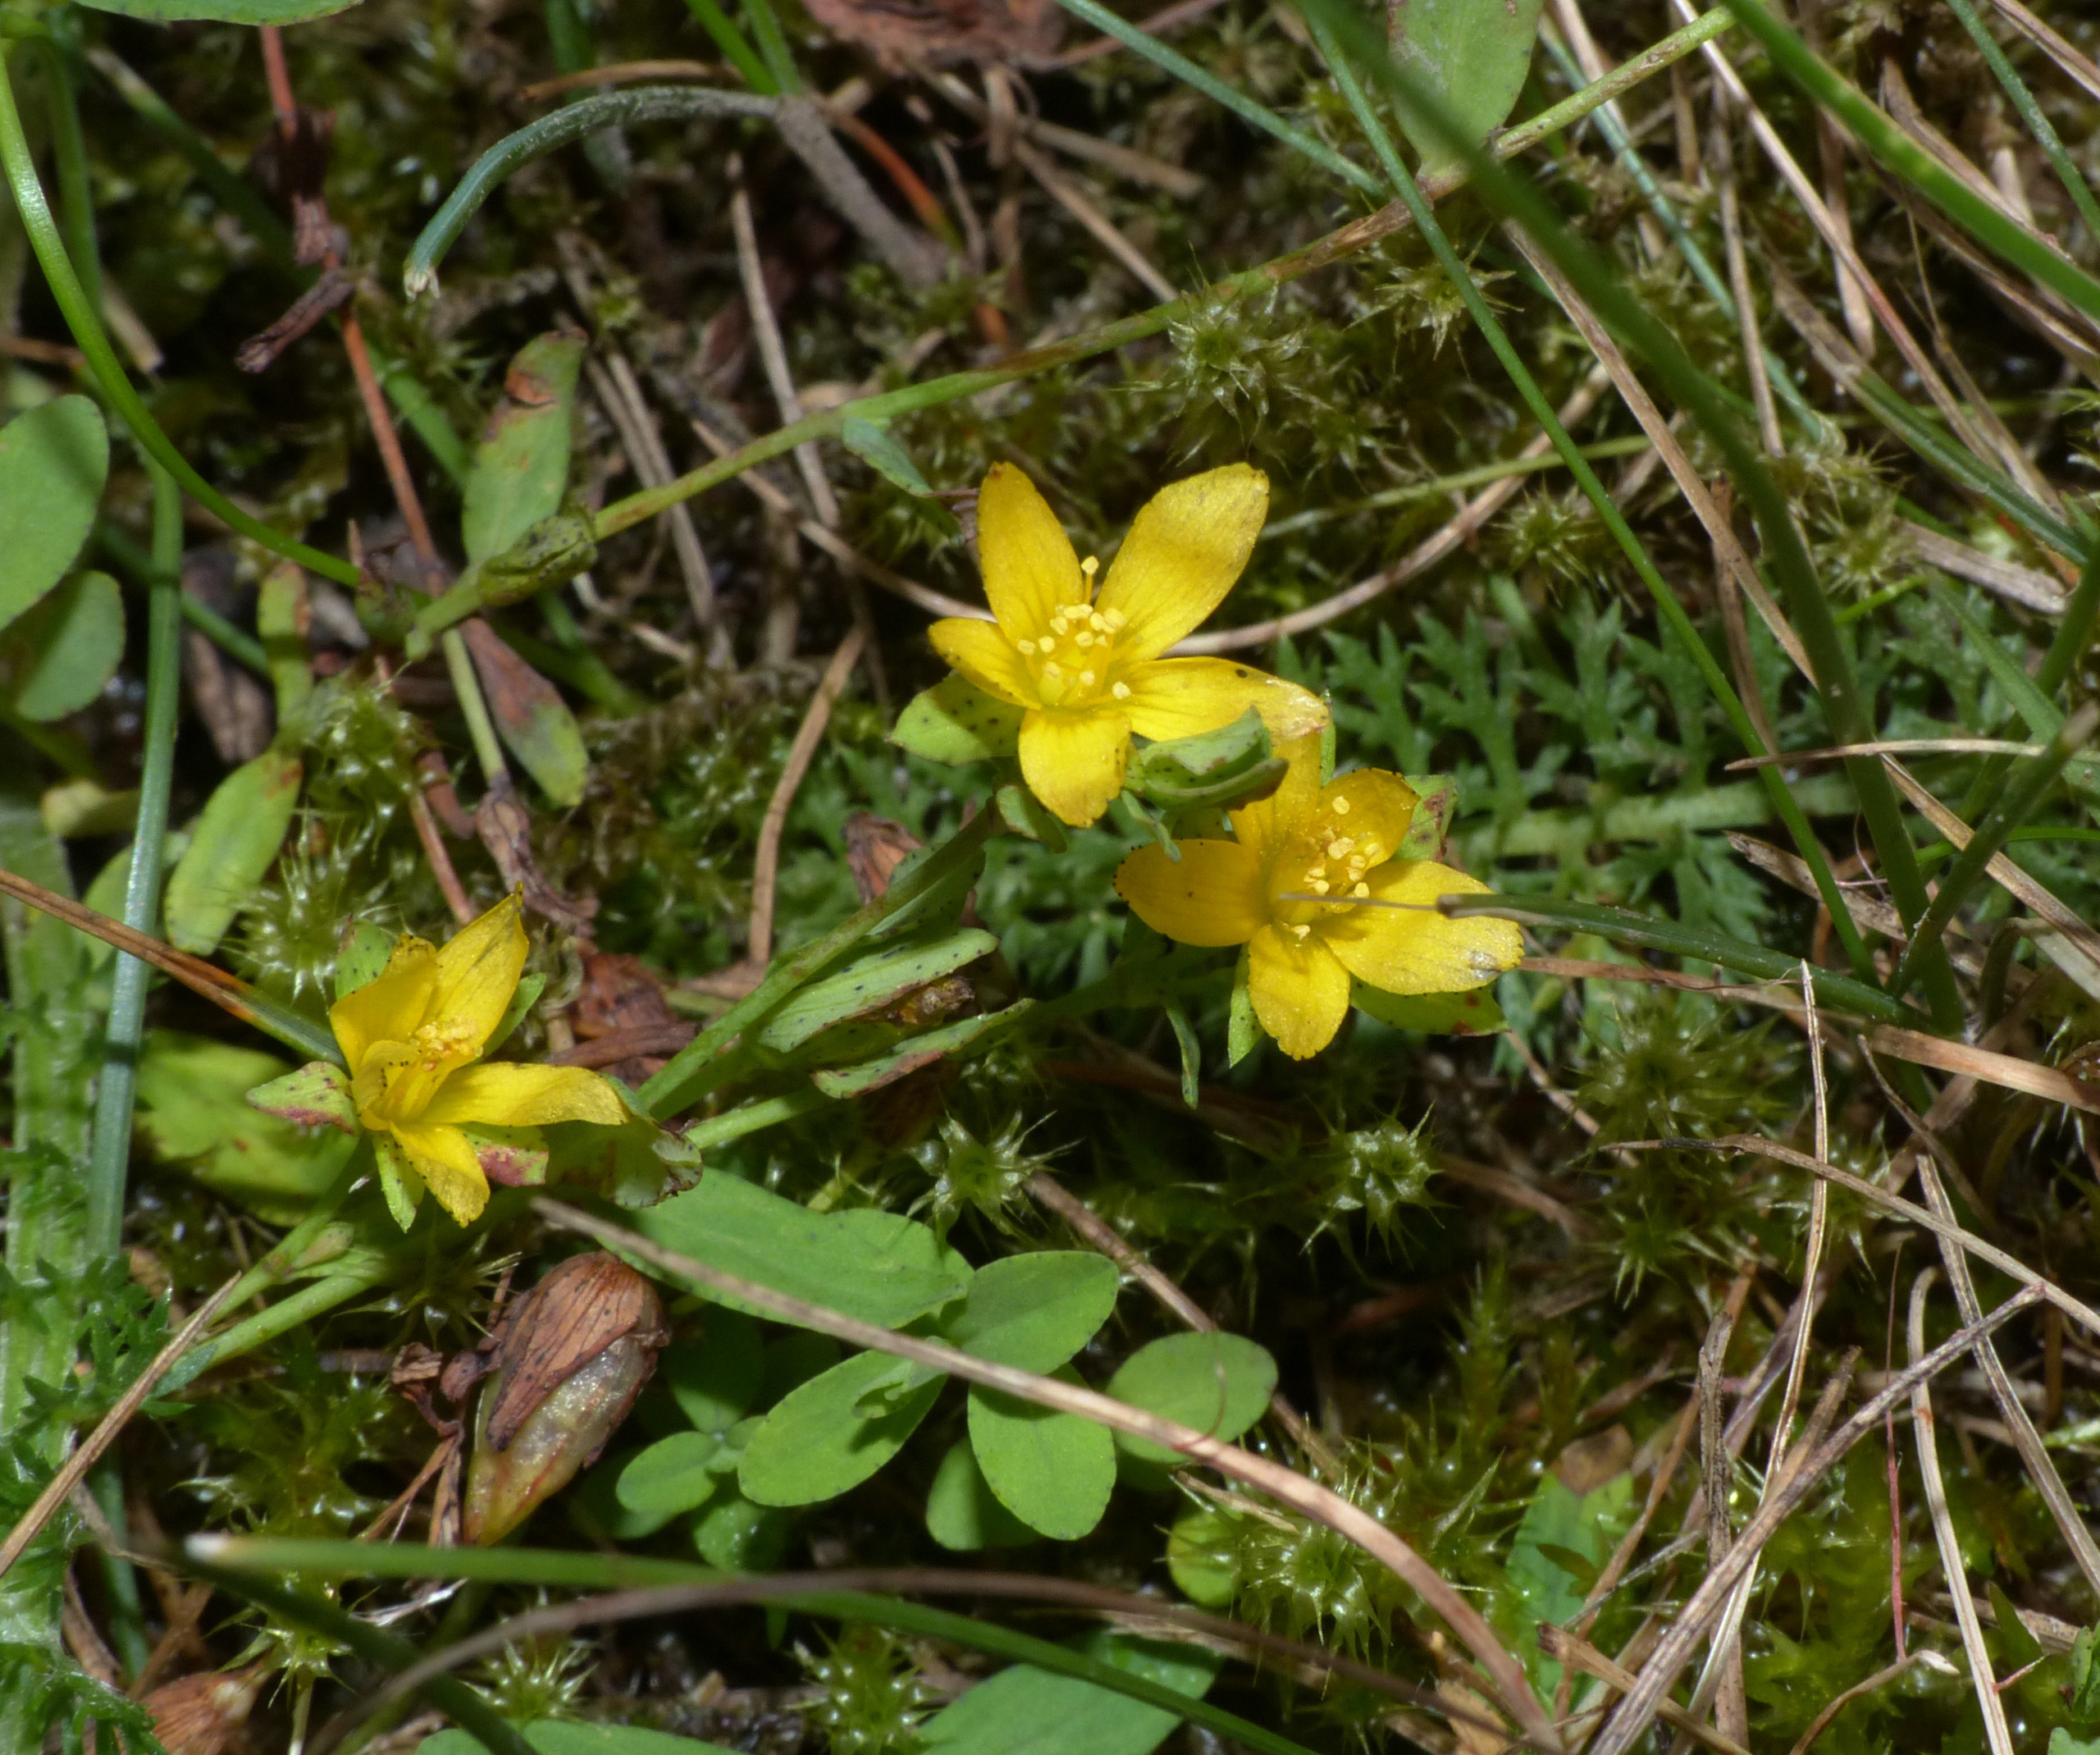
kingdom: Plantae
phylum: Tracheophyta
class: Magnoliopsida
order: Malpighiales
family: Hypericaceae
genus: Hypericum
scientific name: Hypericum humifusum
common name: Dværg-perikon
